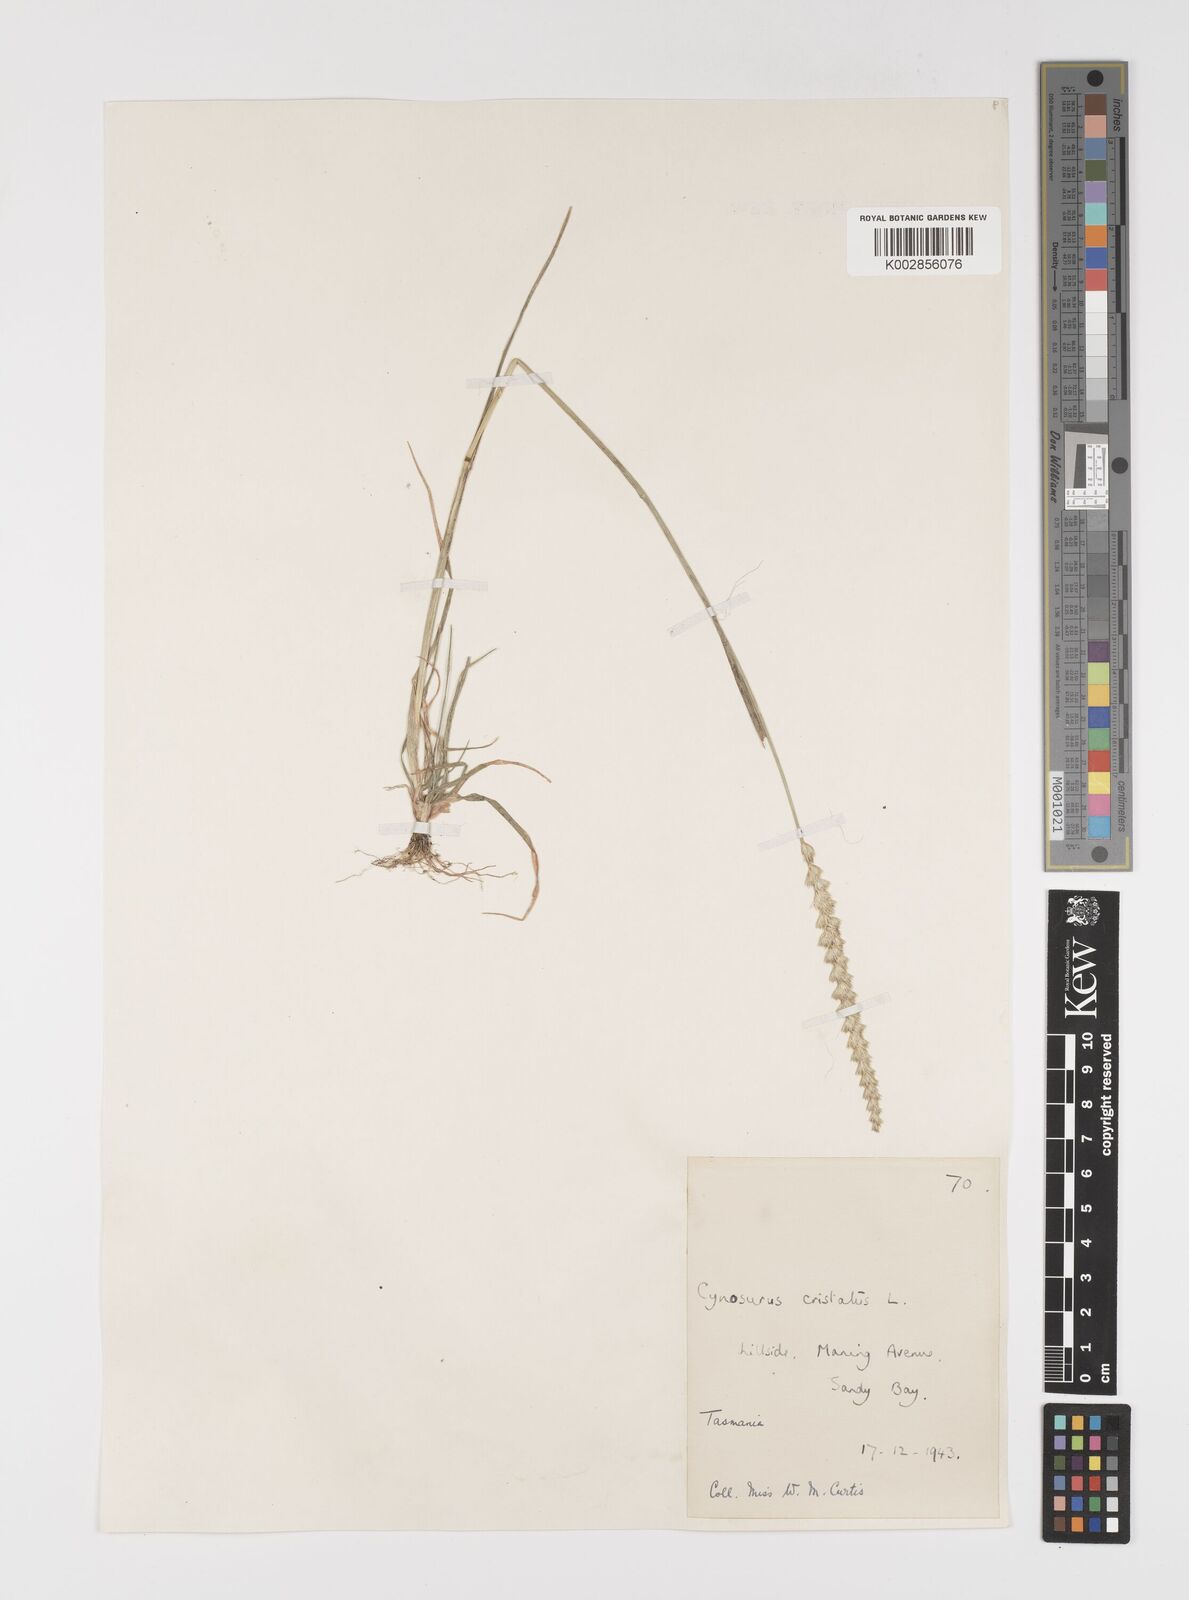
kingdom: Plantae
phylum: Tracheophyta
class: Liliopsida
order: Poales
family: Poaceae
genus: Cynosurus
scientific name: Cynosurus cristatus
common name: Crested dog's-tail
